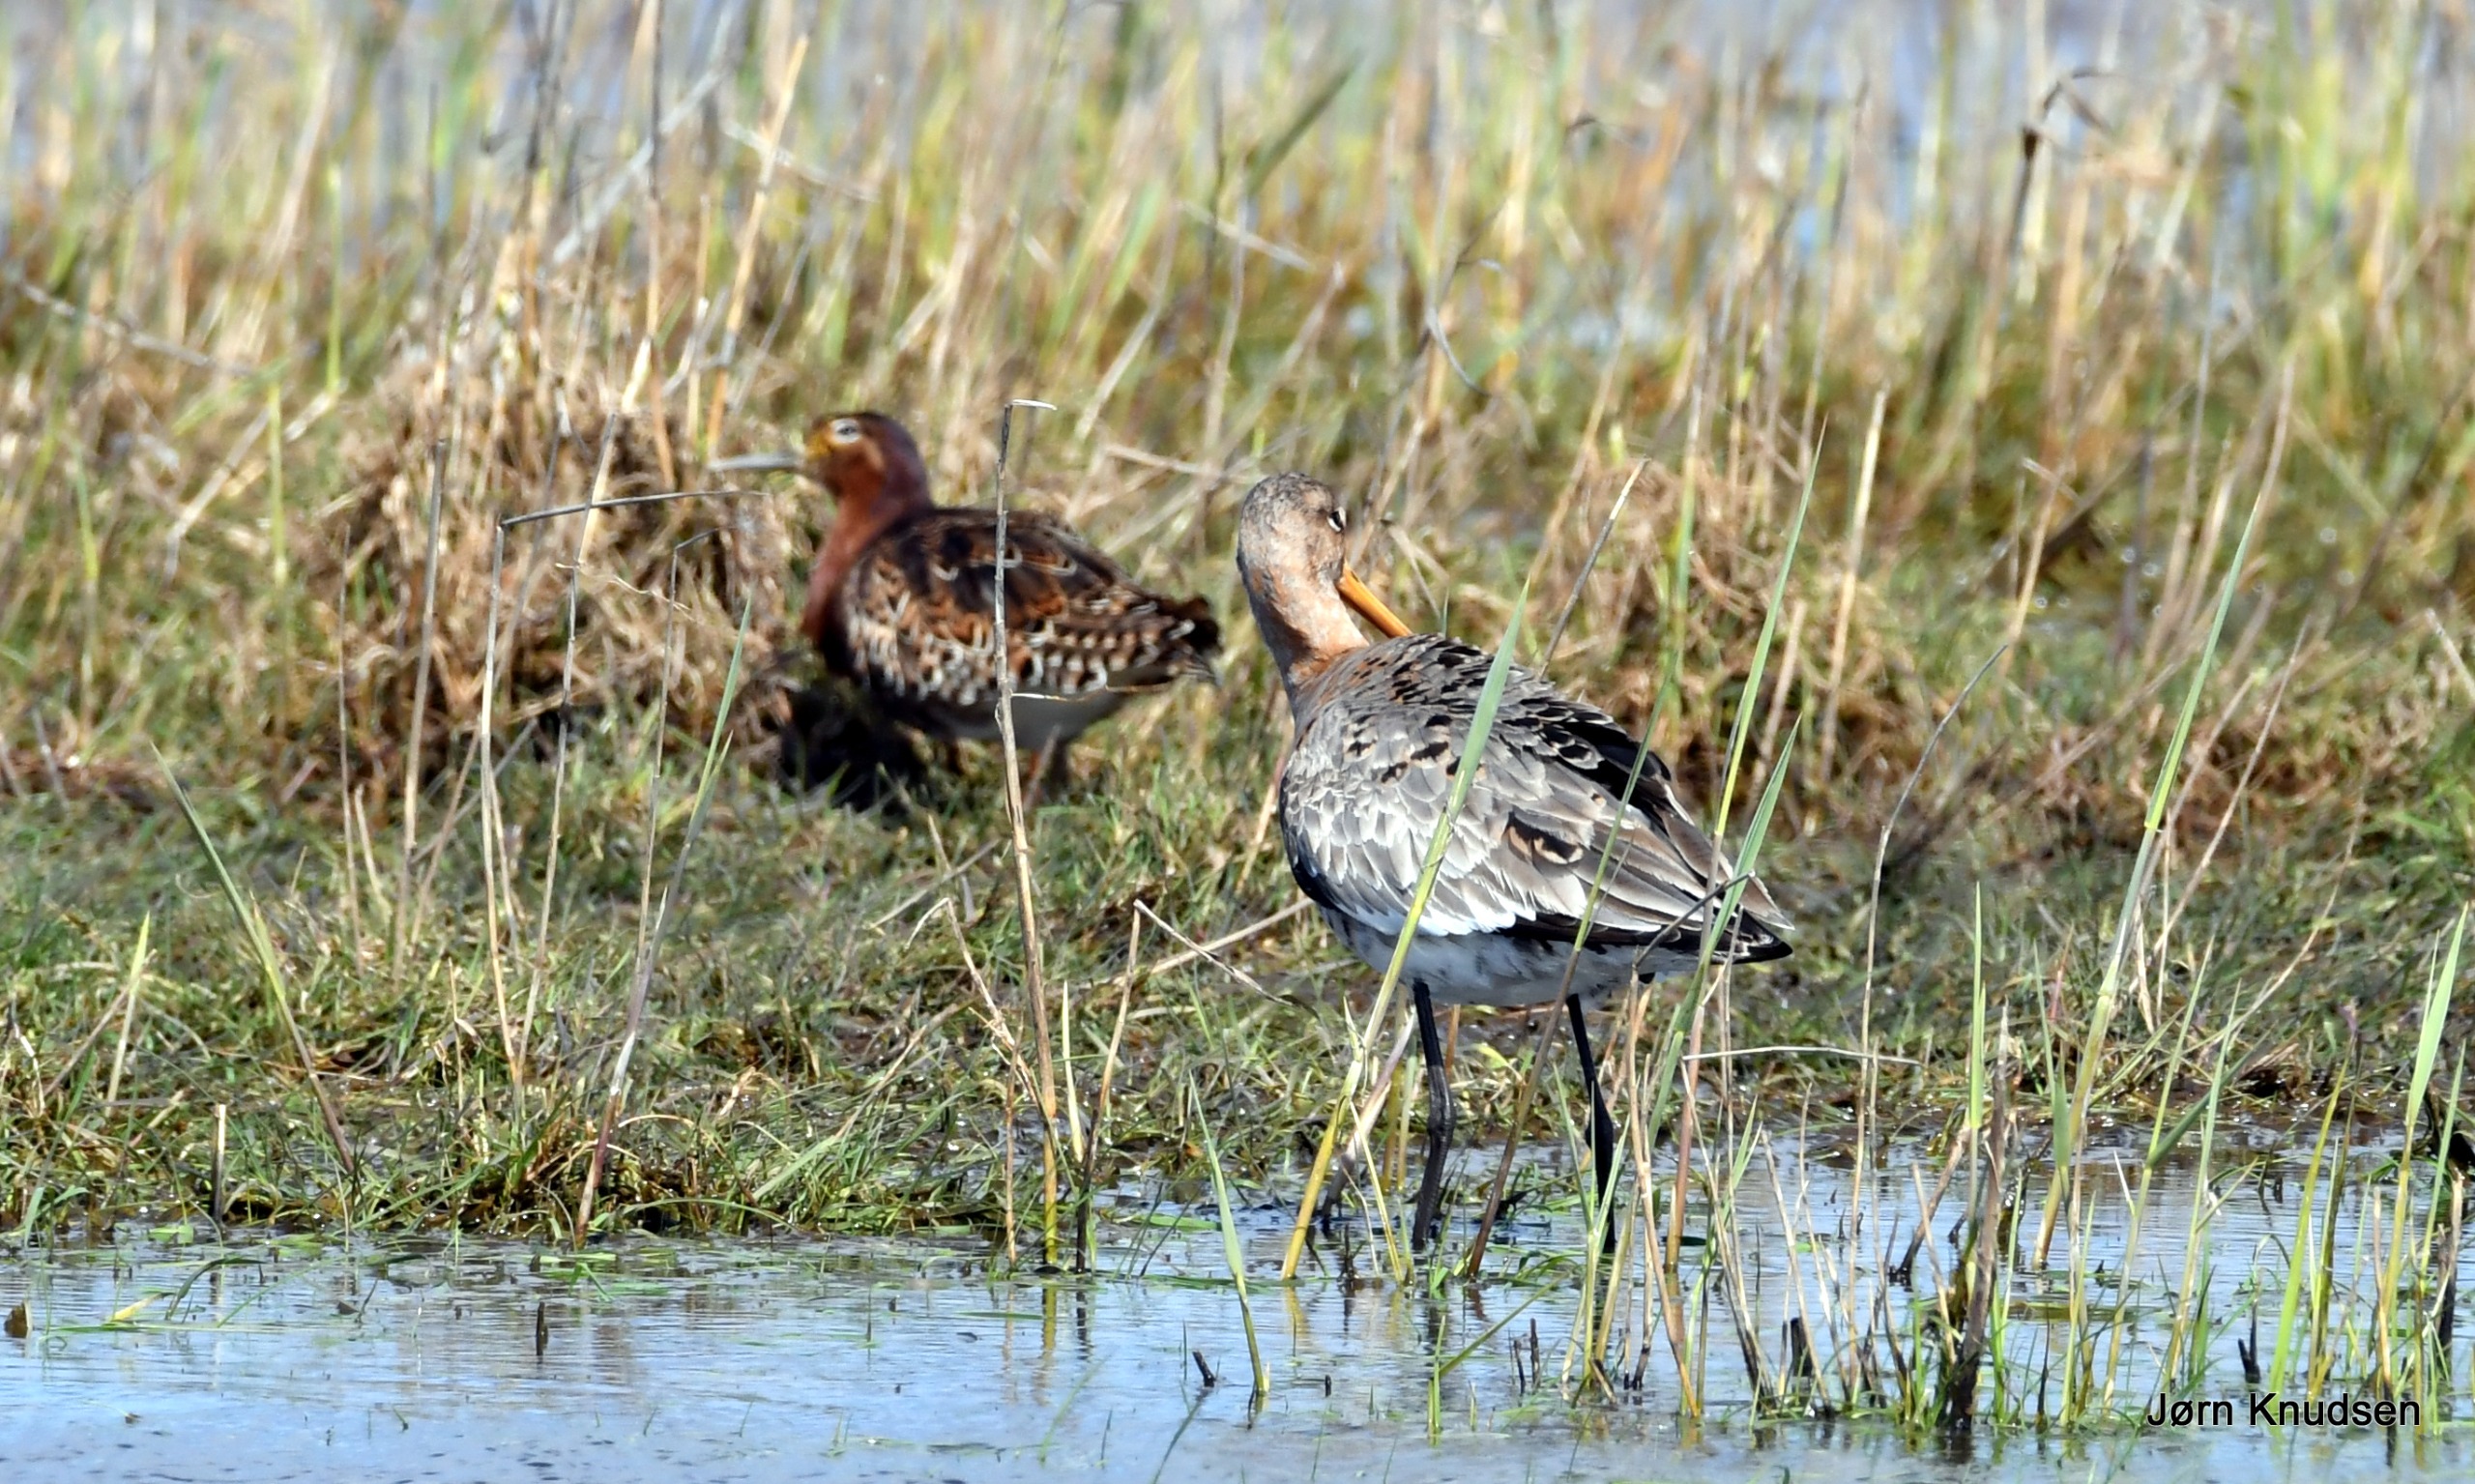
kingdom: Animalia
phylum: Chordata
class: Aves
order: Charadriiformes
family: Scolopacidae
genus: Limosa
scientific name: Limosa limosa
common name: Stor kobbersneppe
